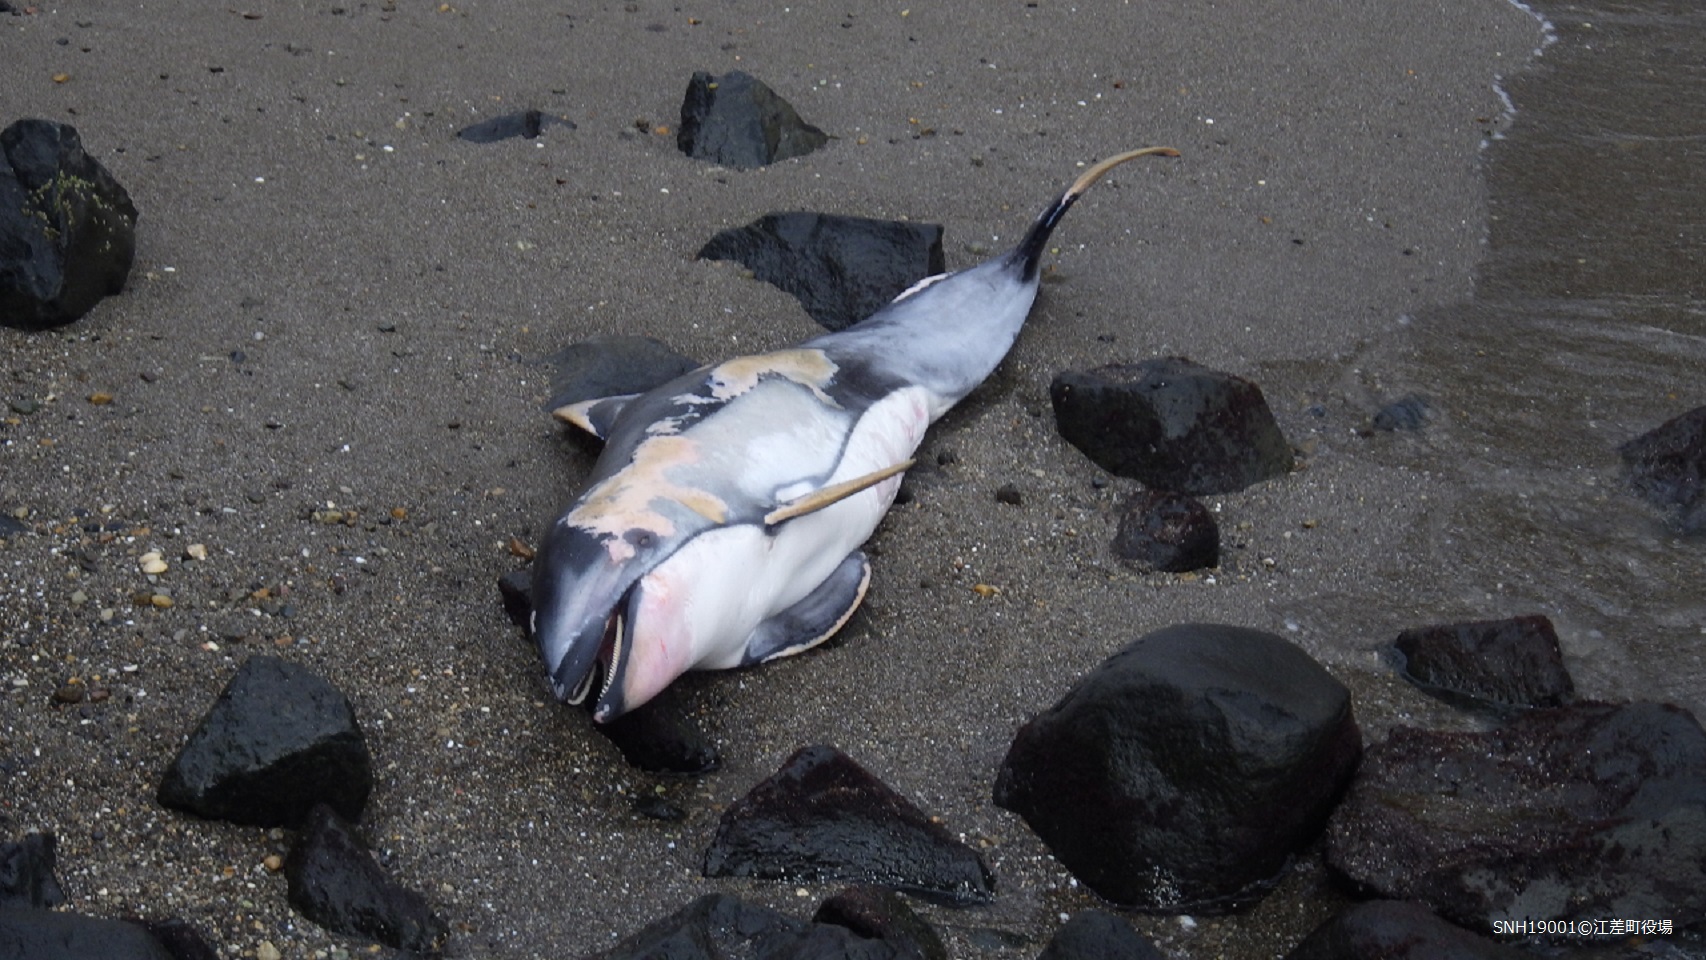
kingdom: Animalia
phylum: Chordata
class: Mammalia
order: Cetacea
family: Delphinidae
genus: Lagenorhynchus
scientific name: Lagenorhynchus obliquidens
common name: Pacific white-sided dolphin
